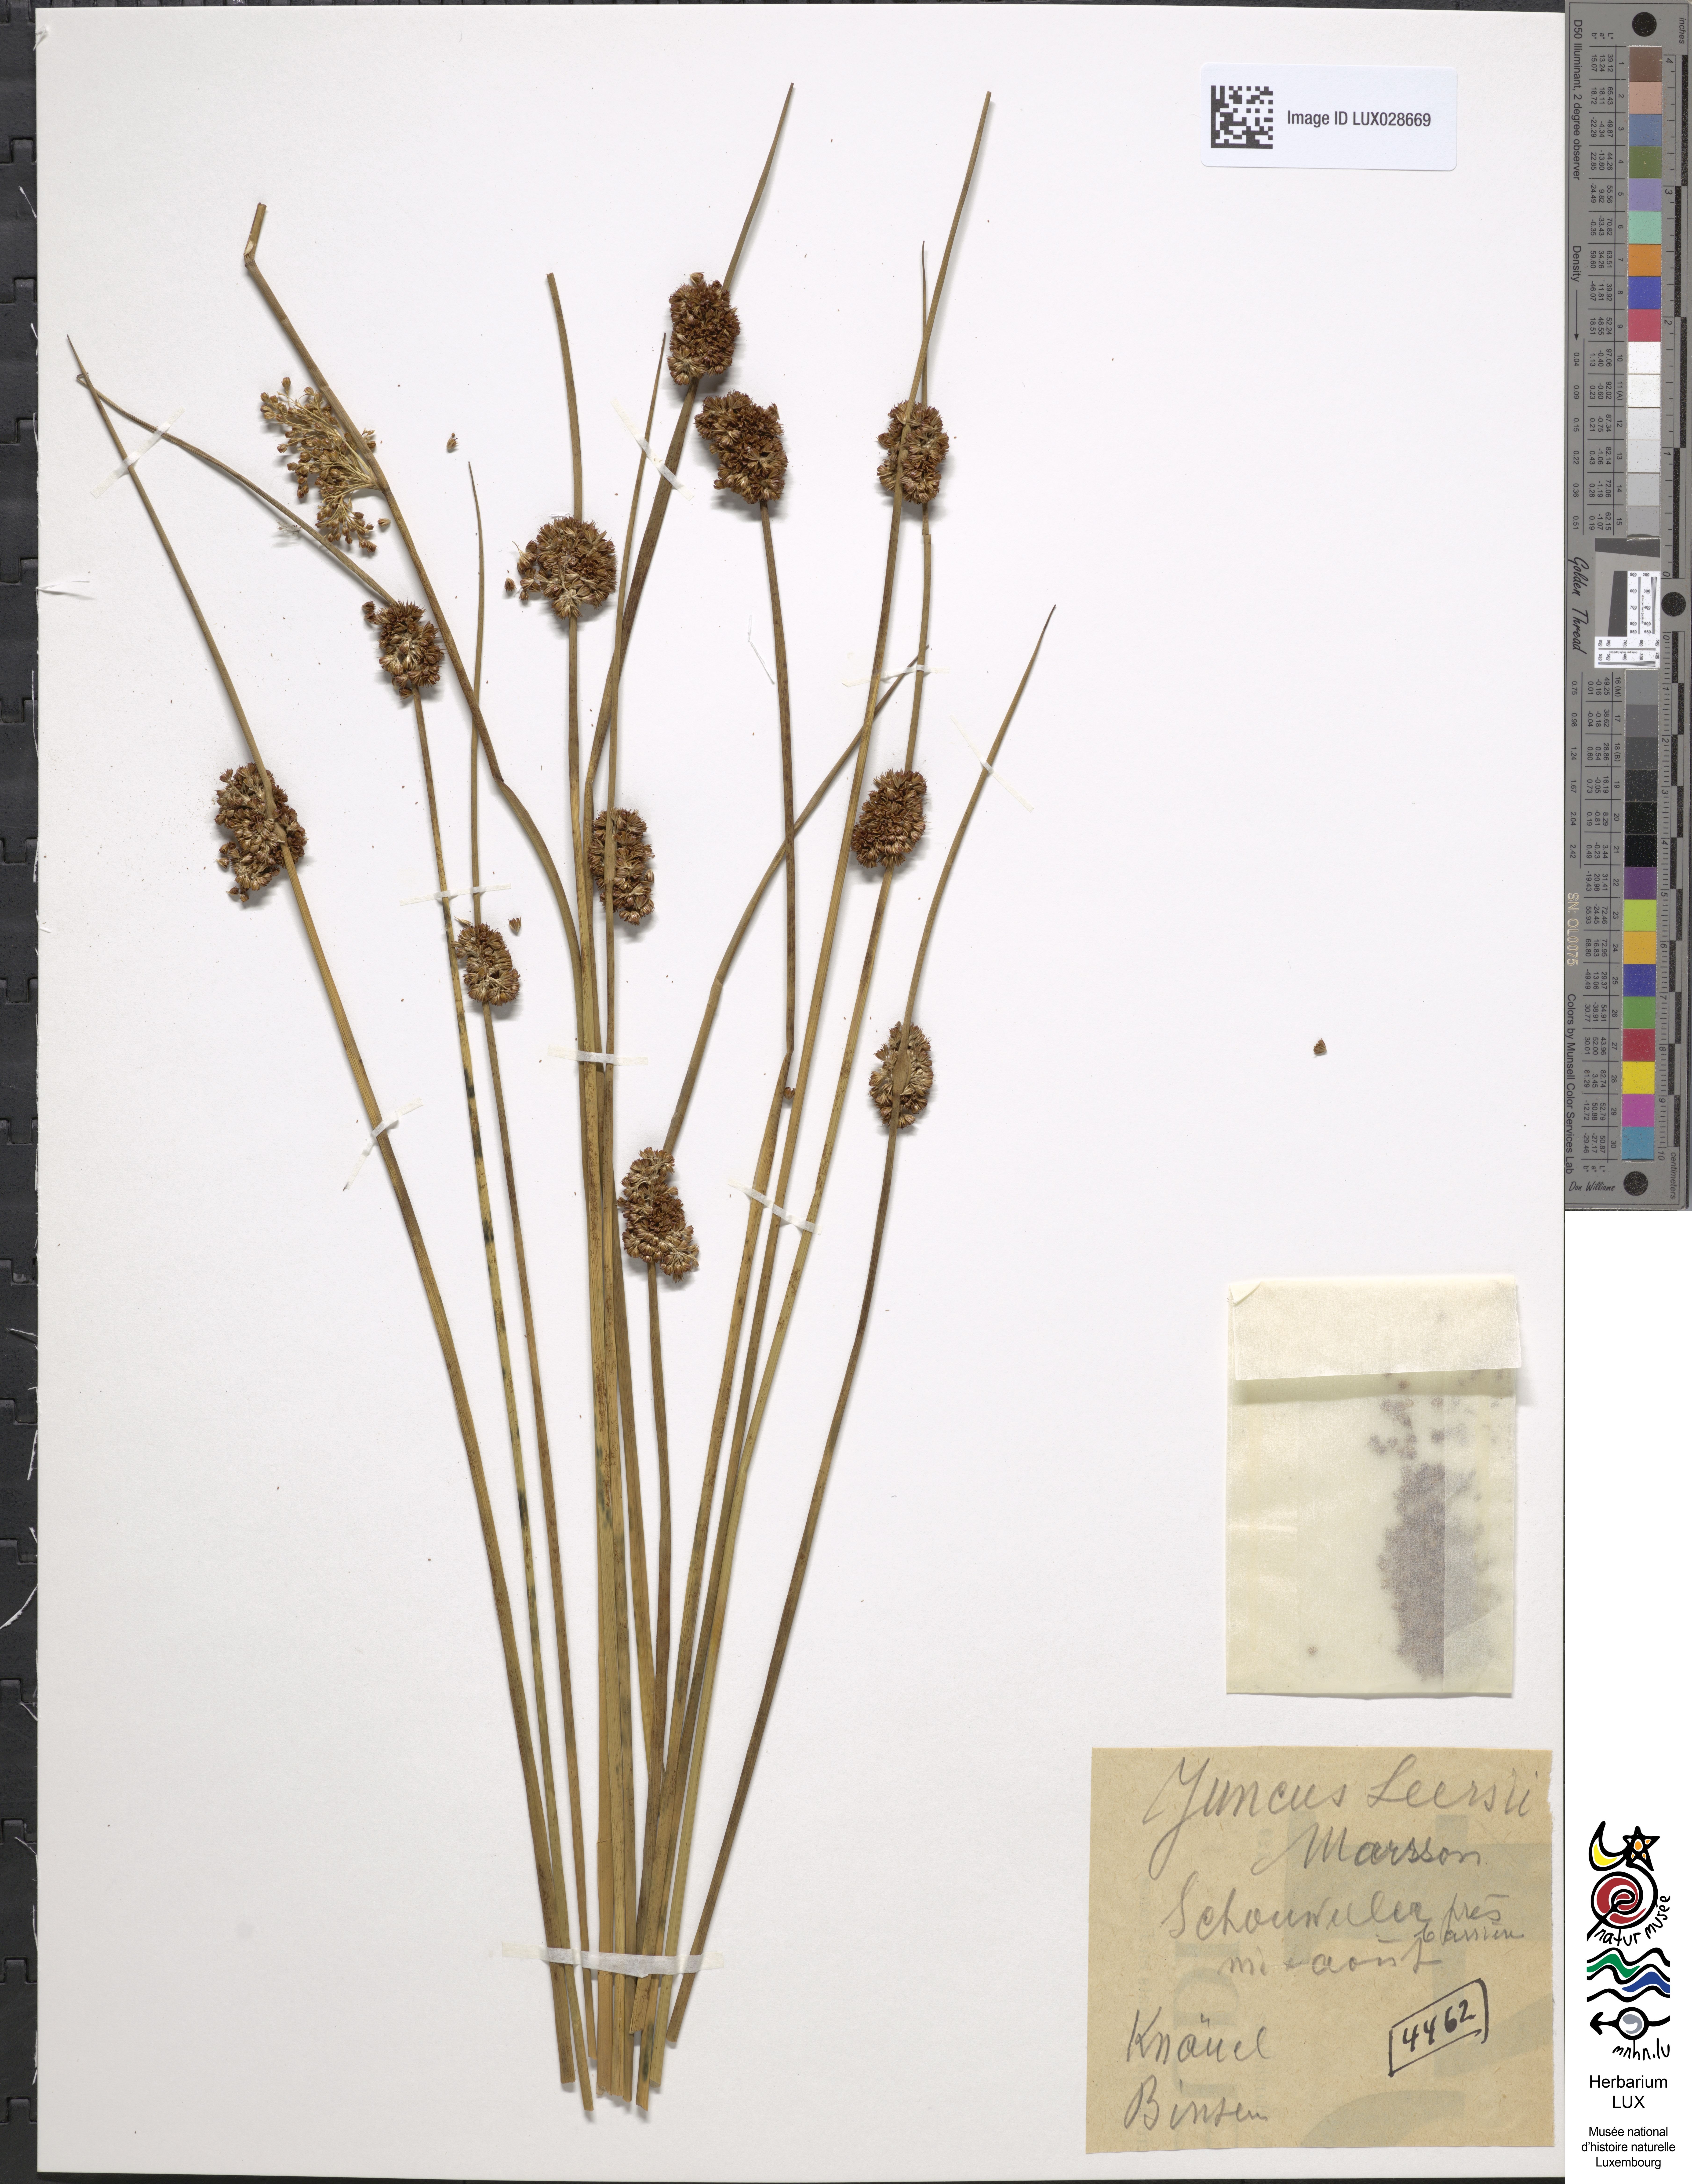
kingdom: Plantae
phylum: Tracheophyta
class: Liliopsida
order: Poales
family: Juncaceae
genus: Juncus
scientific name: Juncus conglomeratus
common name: Compact rush
